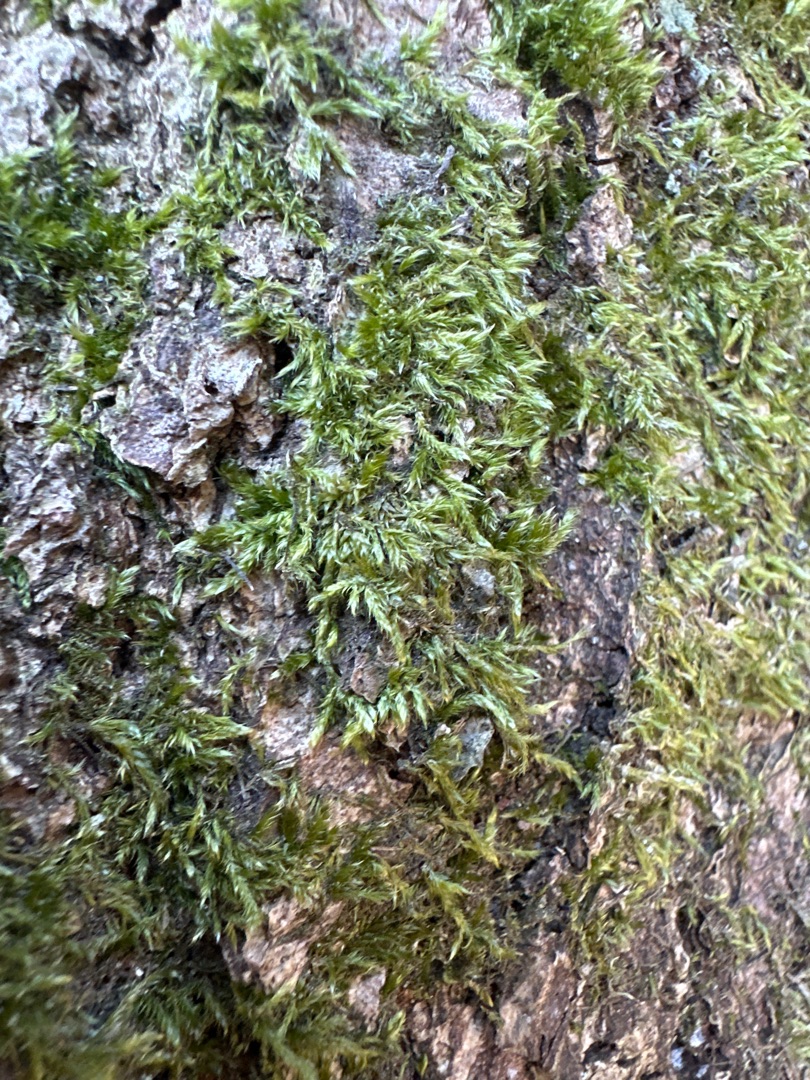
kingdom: Plantae
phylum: Bryophyta
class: Bryopsida
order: Hypnales
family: Hypnaceae
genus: Hypnum
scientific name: Hypnum
